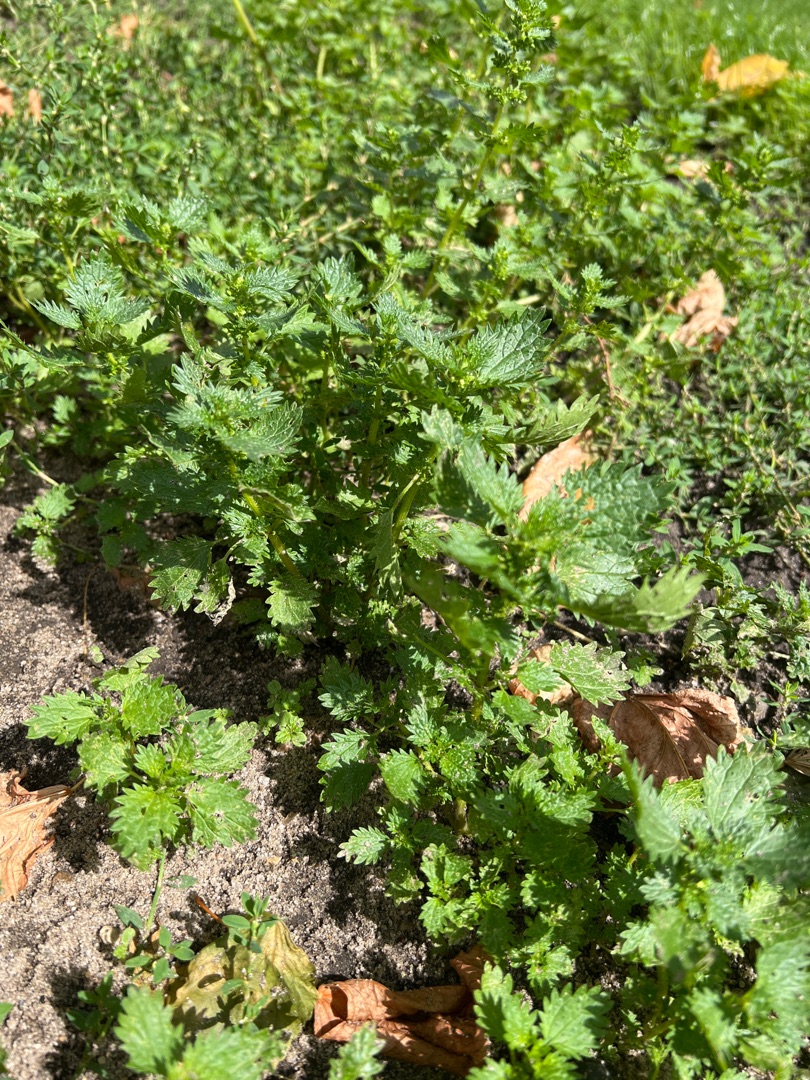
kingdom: Plantae
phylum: Tracheophyta
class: Magnoliopsida
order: Rosales
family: Urticaceae
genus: Urtica
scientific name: Urtica urens
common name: Liden nælde
